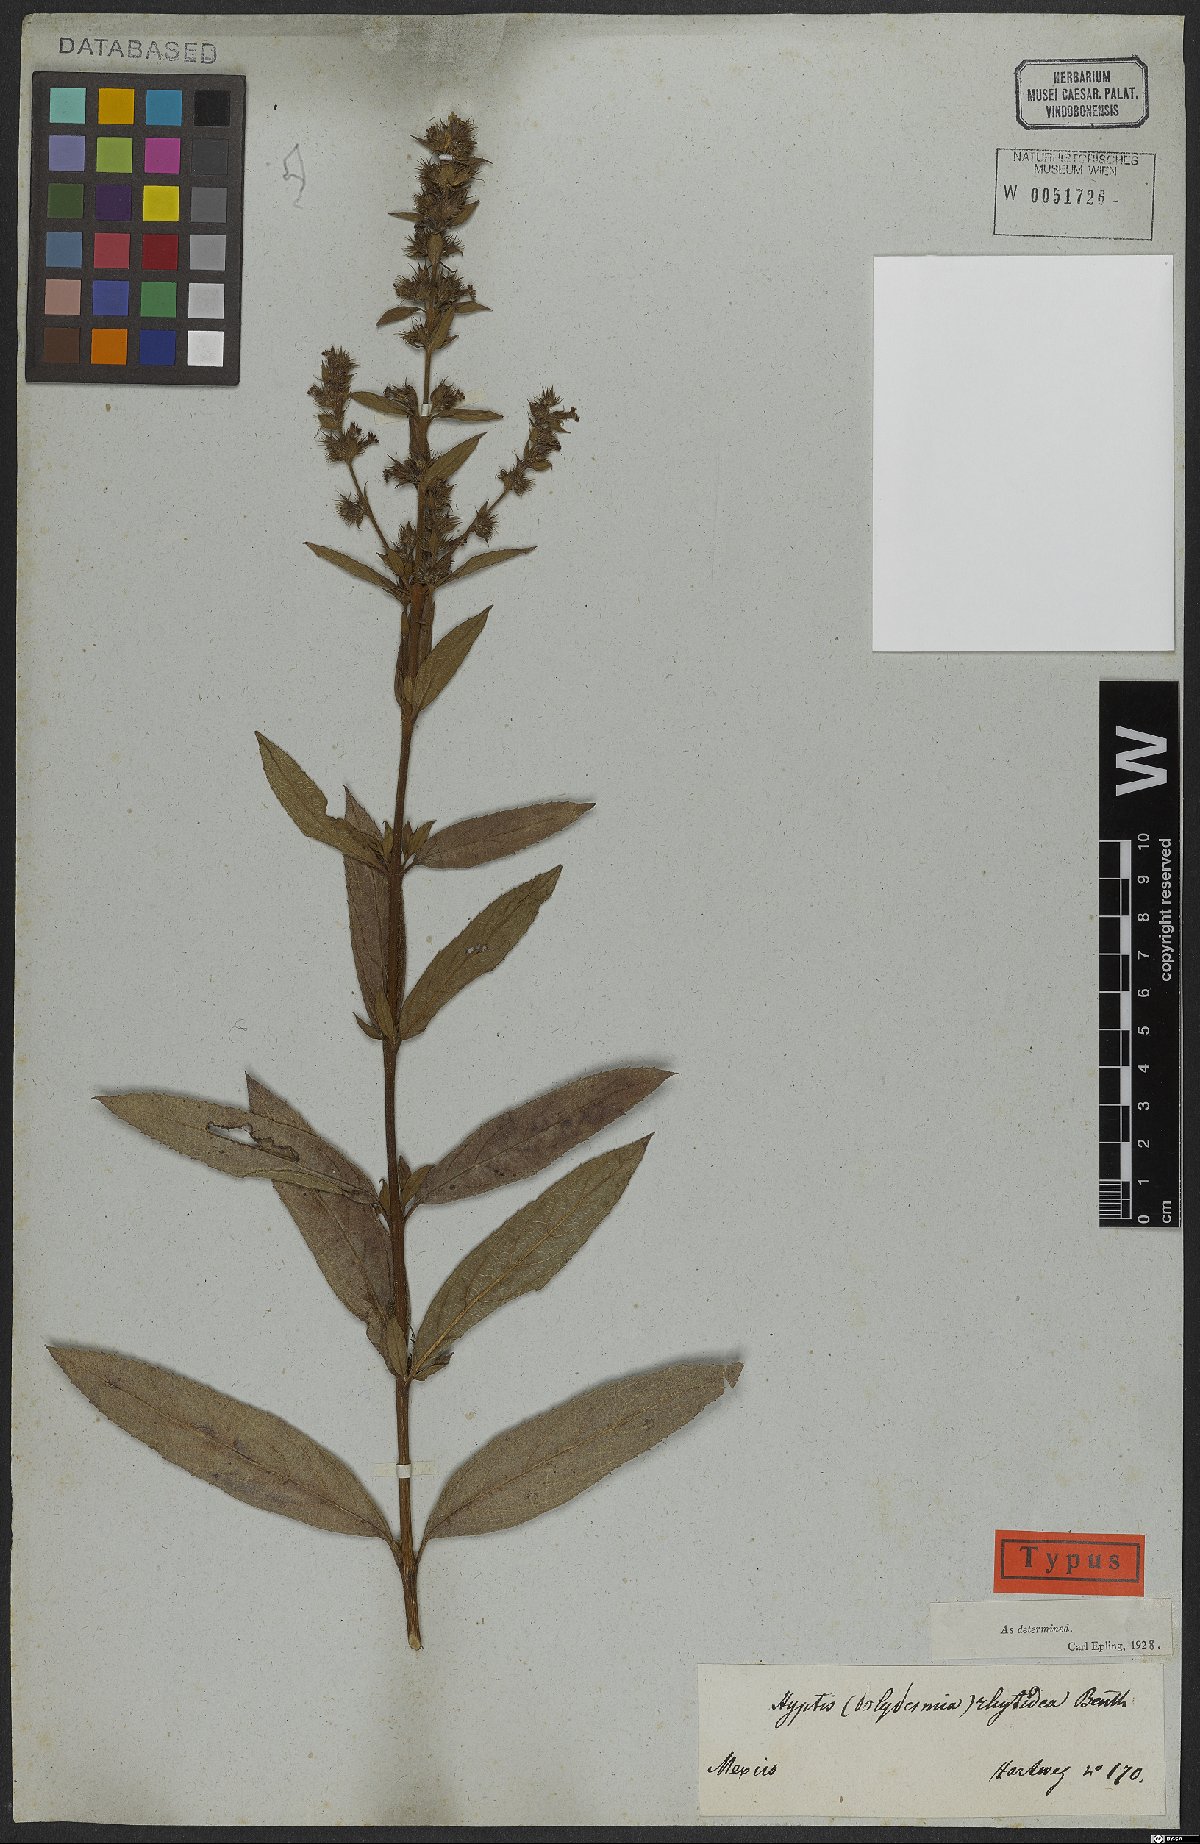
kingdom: Plantae
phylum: Tracheophyta
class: Magnoliopsida
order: Lamiales
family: Lamiaceae
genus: Hyptis
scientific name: Hyptis rhytidea
